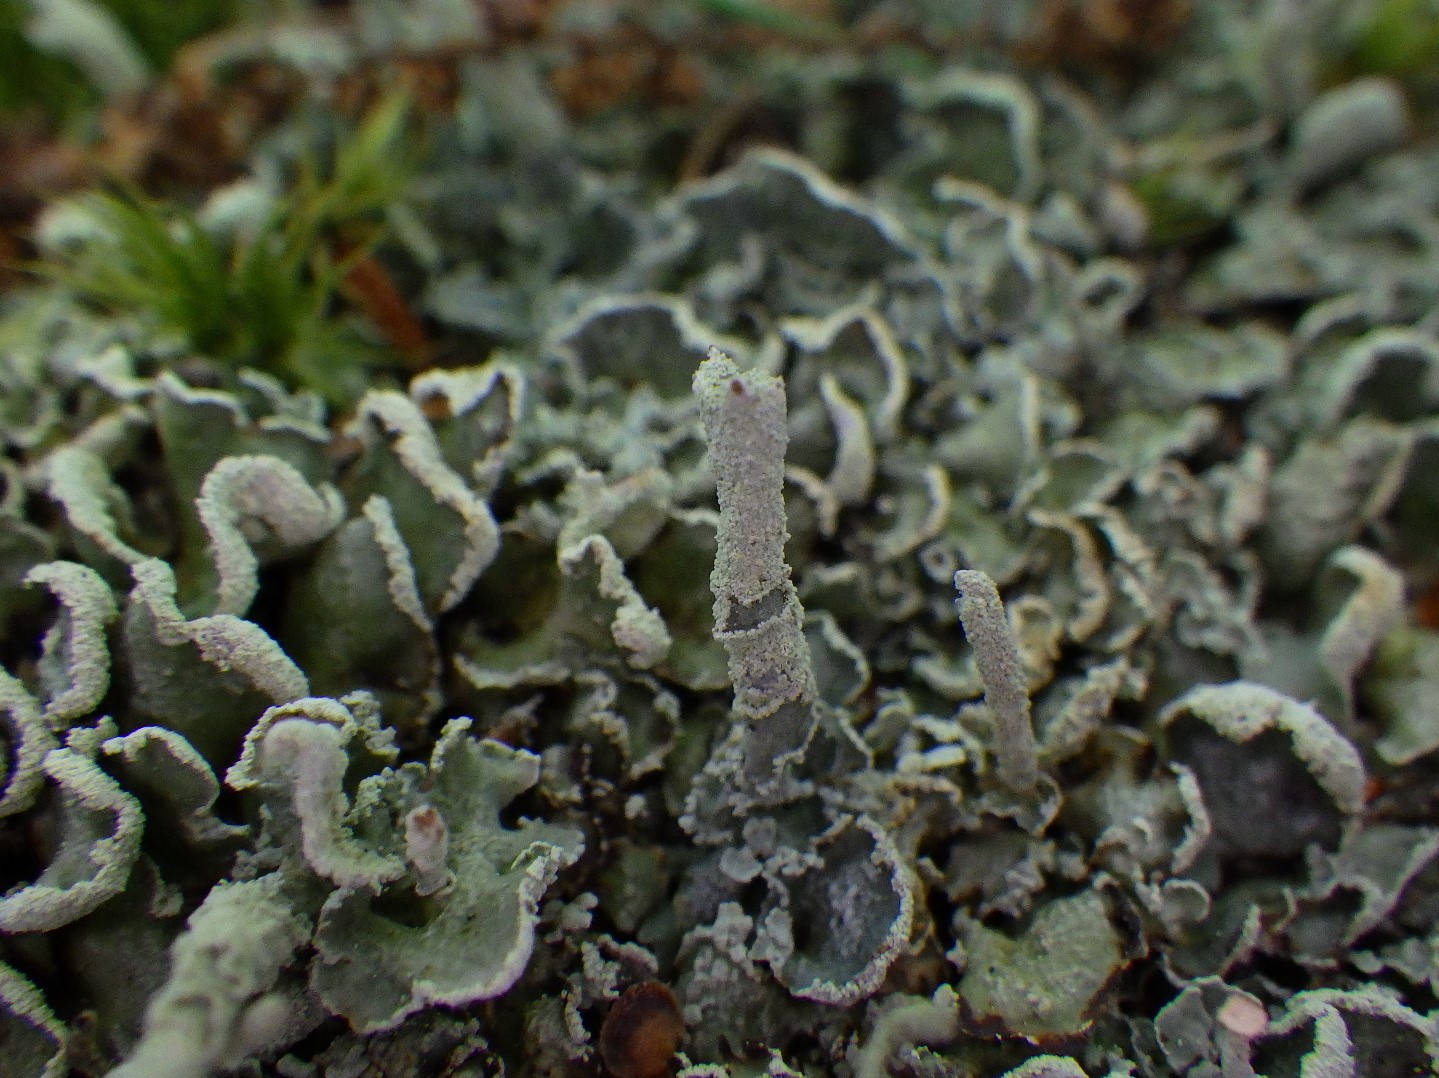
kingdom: Fungi
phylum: Ascomycota
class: Lecanoromycetes
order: Lecanorales
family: Cladoniaceae
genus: Cladonia
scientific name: Cladonia digitata
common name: finger-bægerlav
